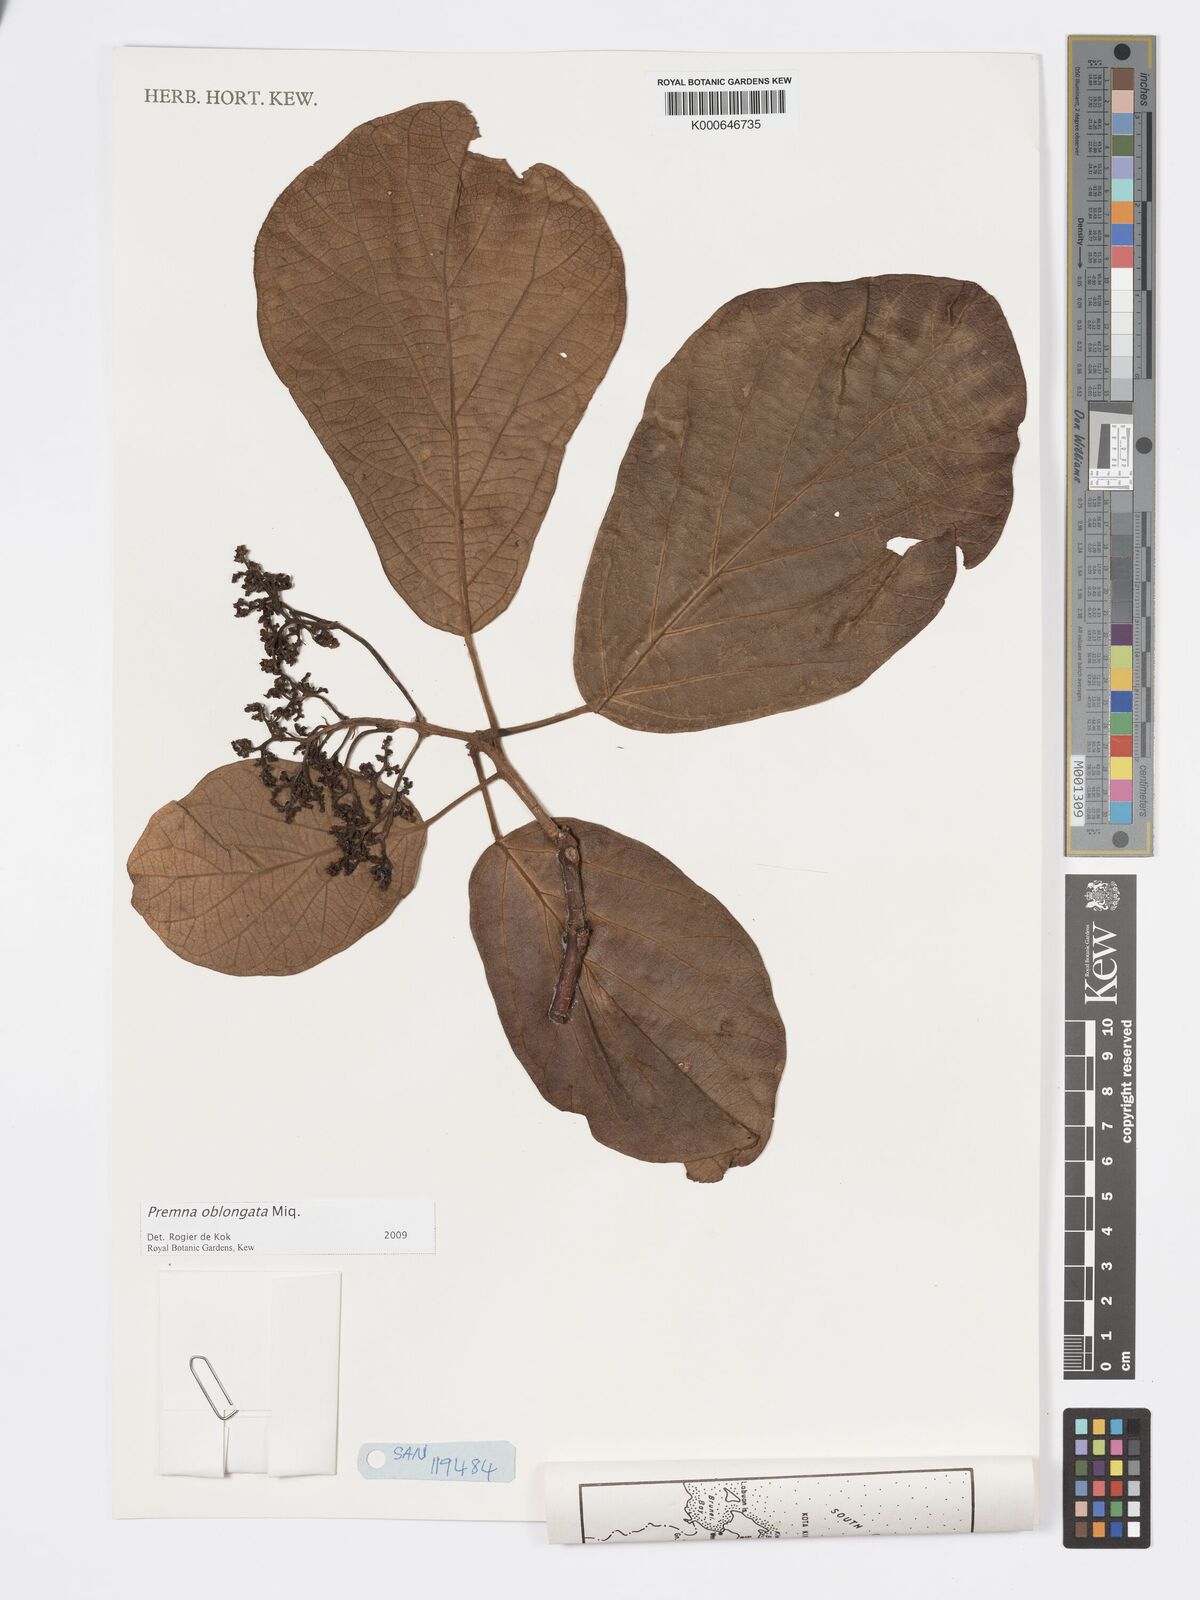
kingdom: Plantae
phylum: Tracheophyta
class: Magnoliopsida
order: Lamiales
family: Lamiaceae
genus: Premna
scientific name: Premna oblongata
